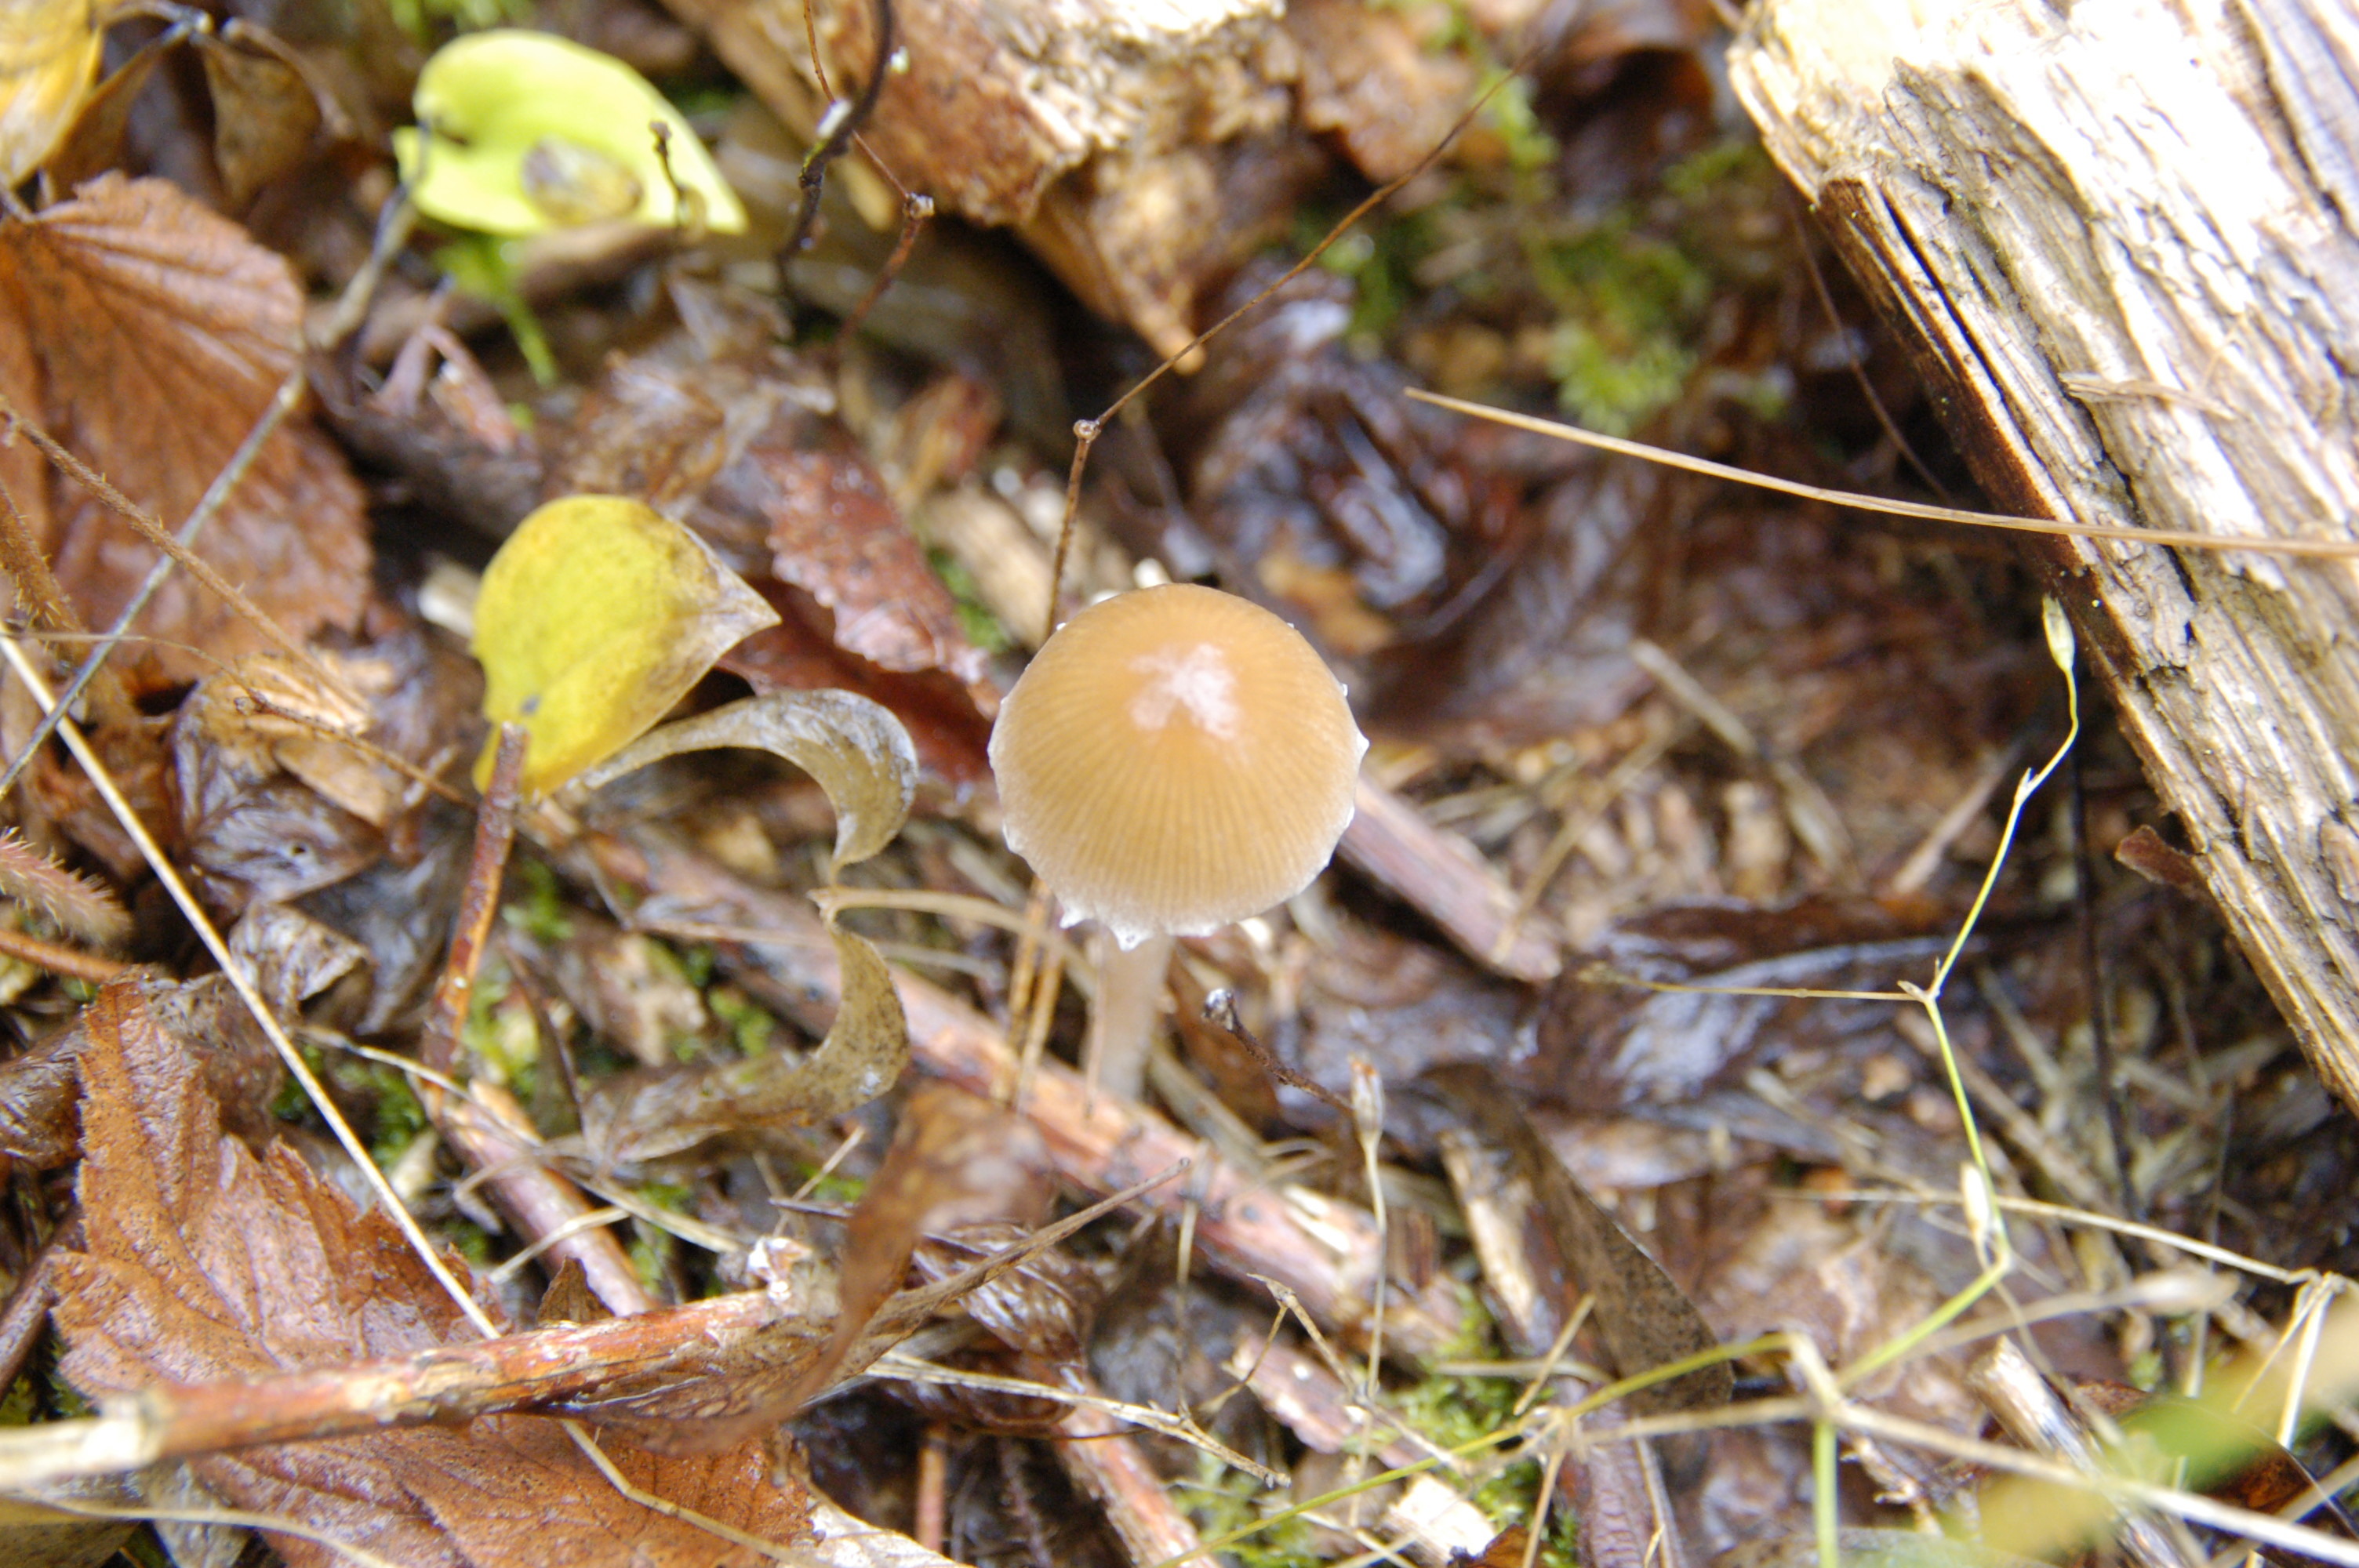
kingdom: Fungi
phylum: Basidiomycota
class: Agaricomycetes
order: Agaricales
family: Psathyrellaceae
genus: Psathyrella
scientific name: Psathyrella
